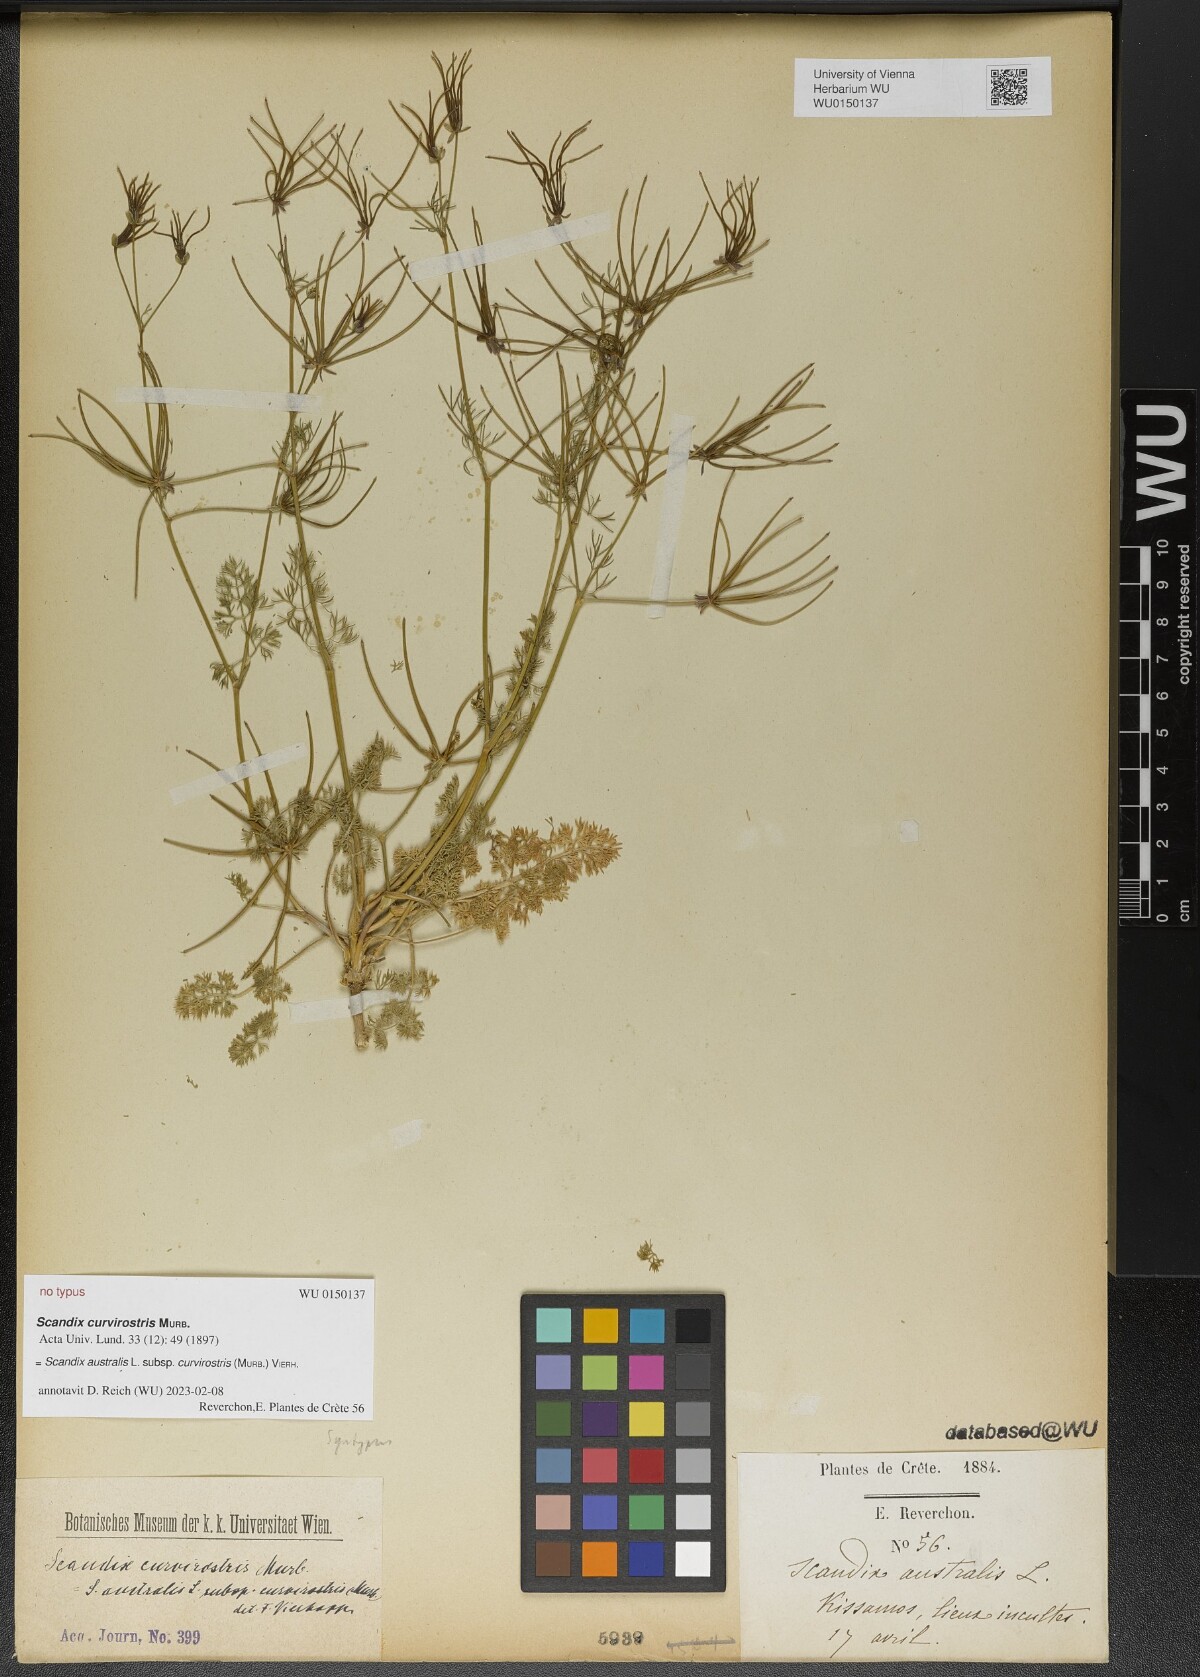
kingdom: Plantae
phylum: Tracheophyta
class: Magnoliopsida
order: Apiales
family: Apiaceae
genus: Scandix
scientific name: Scandix australis
